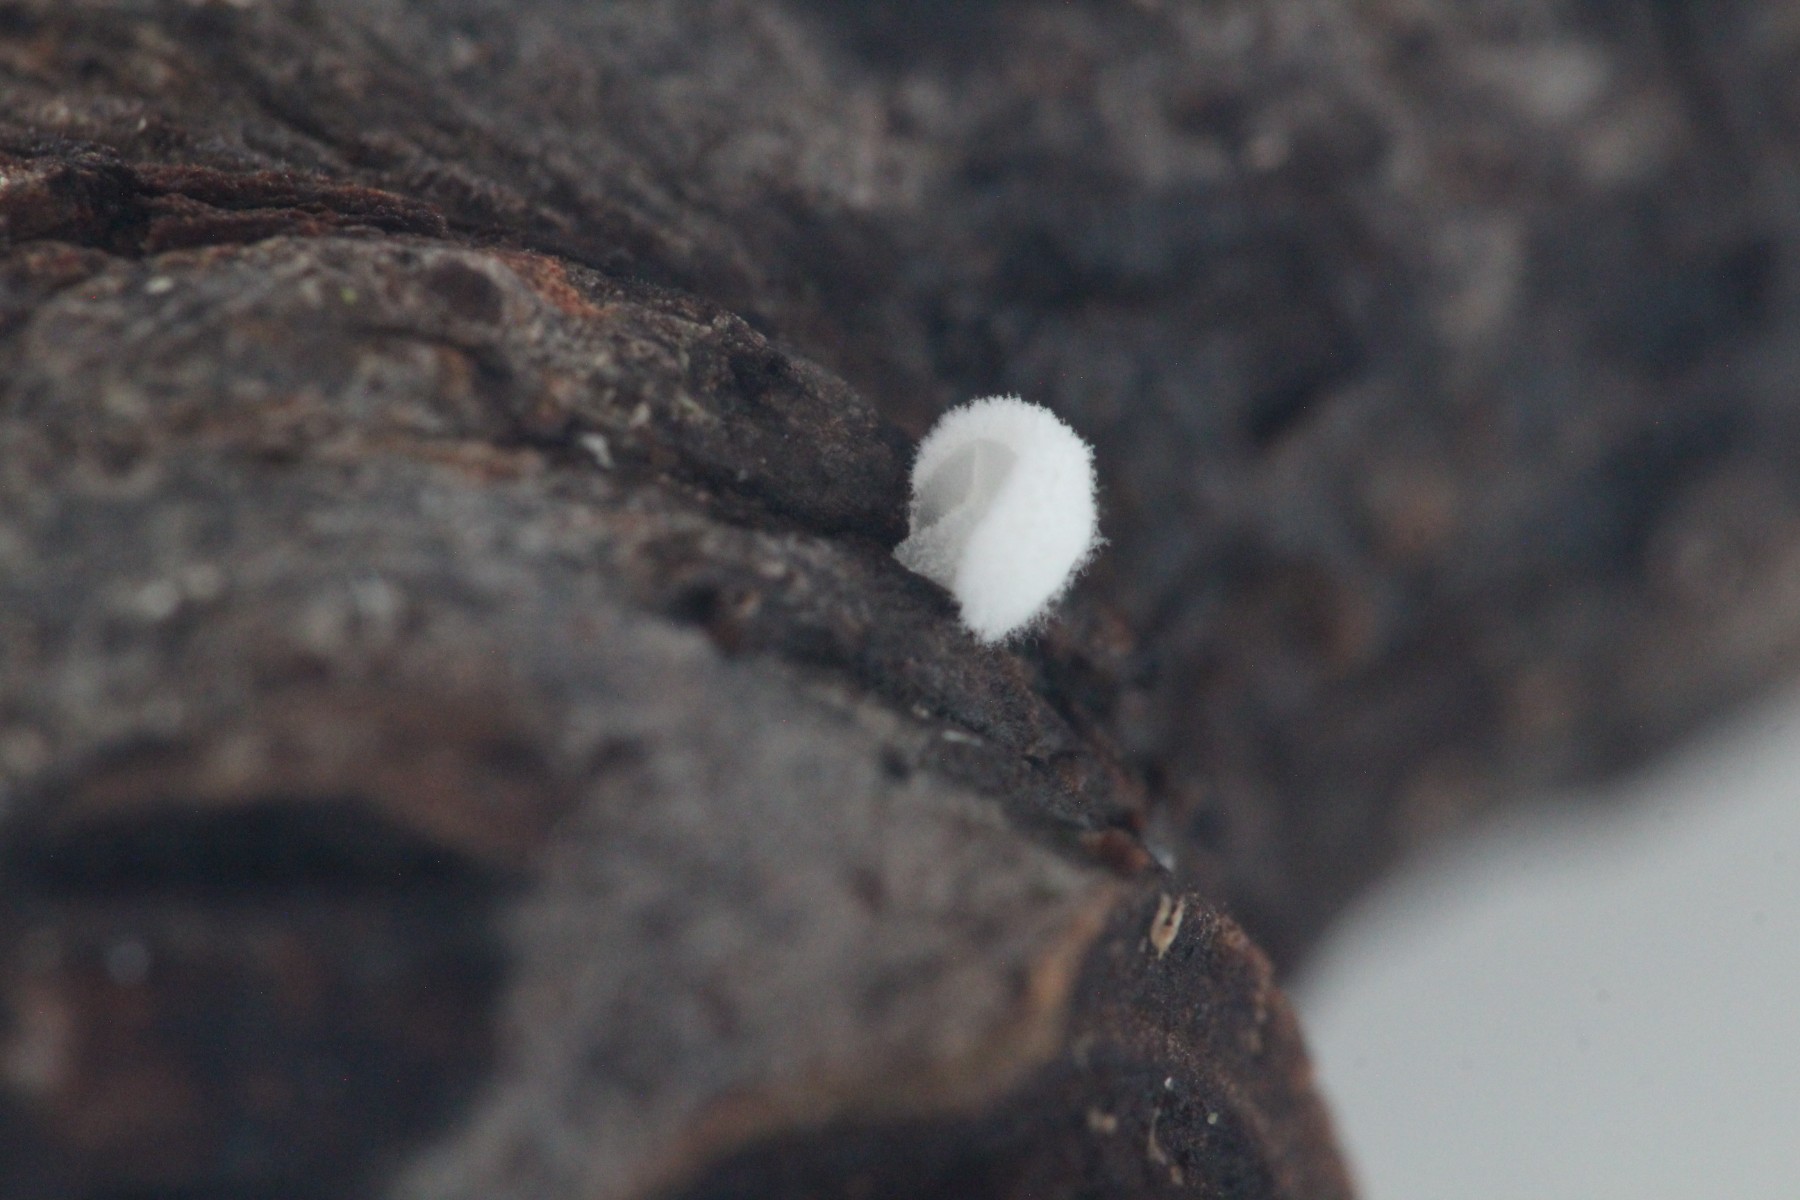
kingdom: Fungi
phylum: Basidiomycota
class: Agaricomycetes
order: Agaricales
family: Entolomataceae
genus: Clitopilus
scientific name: Clitopilus hobsonii
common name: Miller's oysterling
